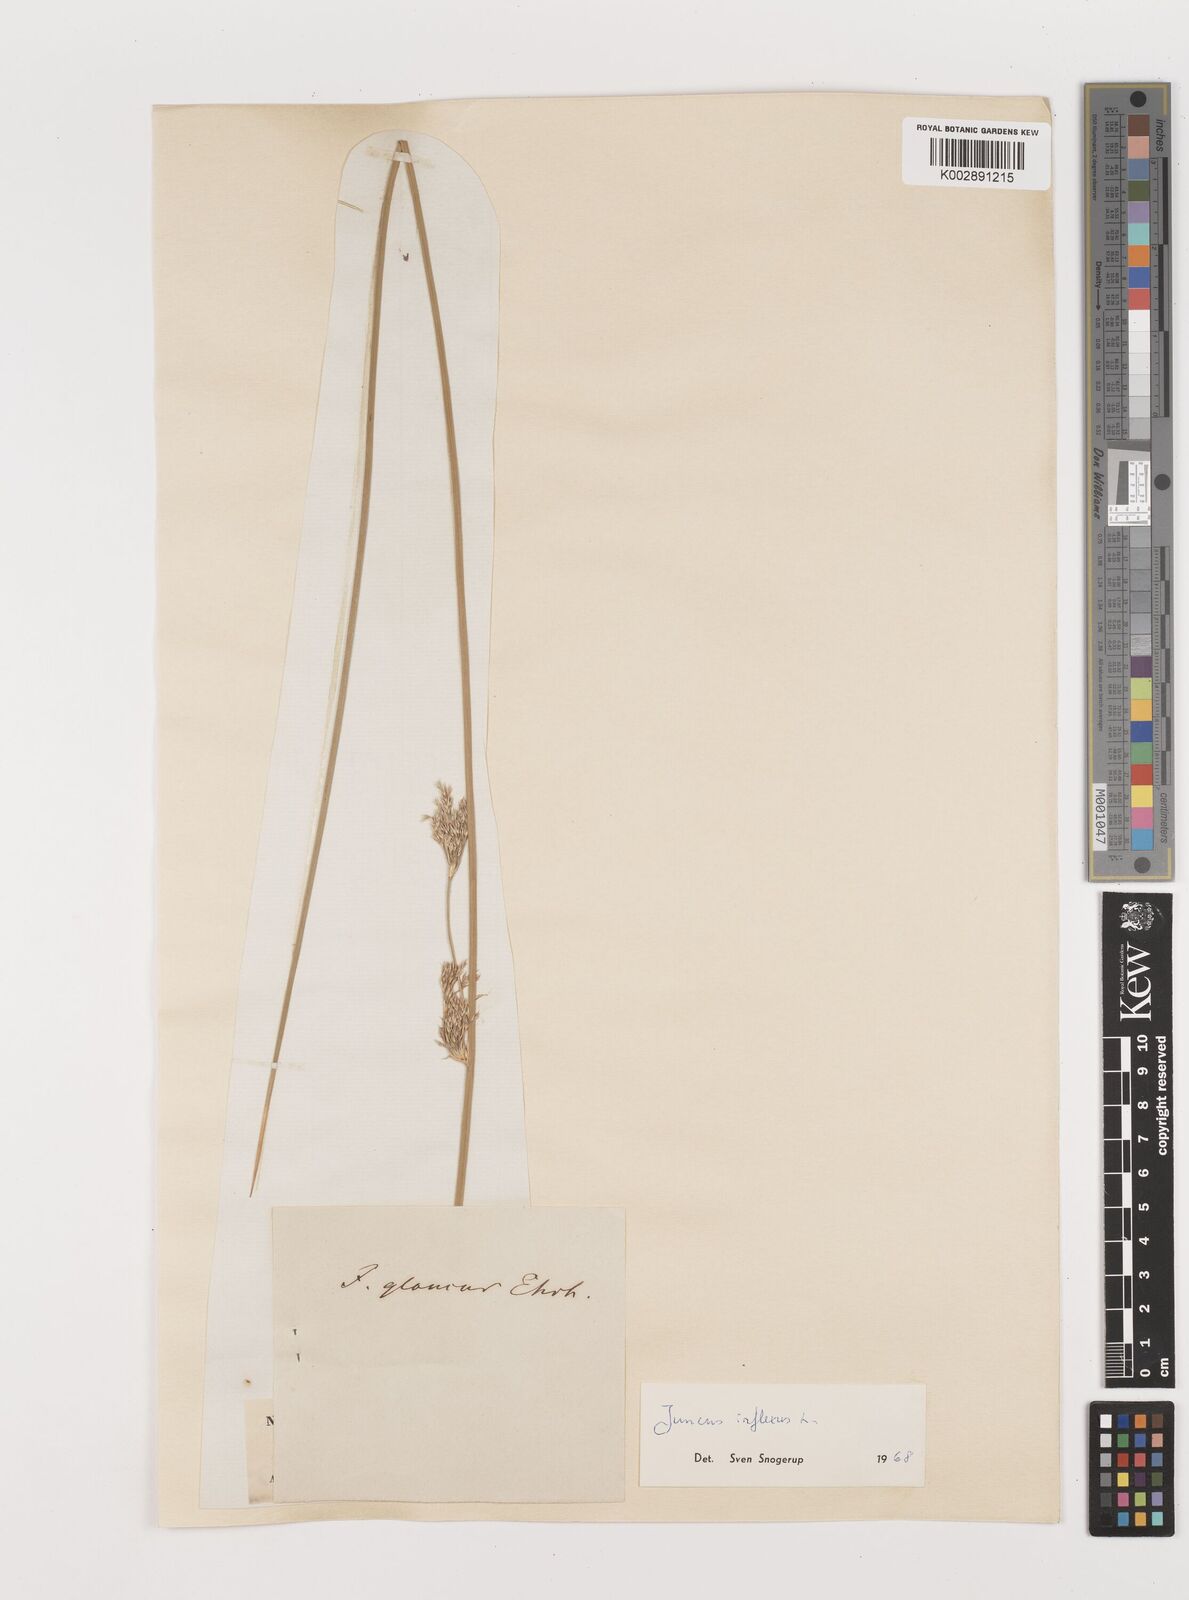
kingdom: Plantae
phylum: Tracheophyta
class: Liliopsida
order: Poales
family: Juncaceae
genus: Juncus
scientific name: Juncus inflexus
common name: Hard rush
